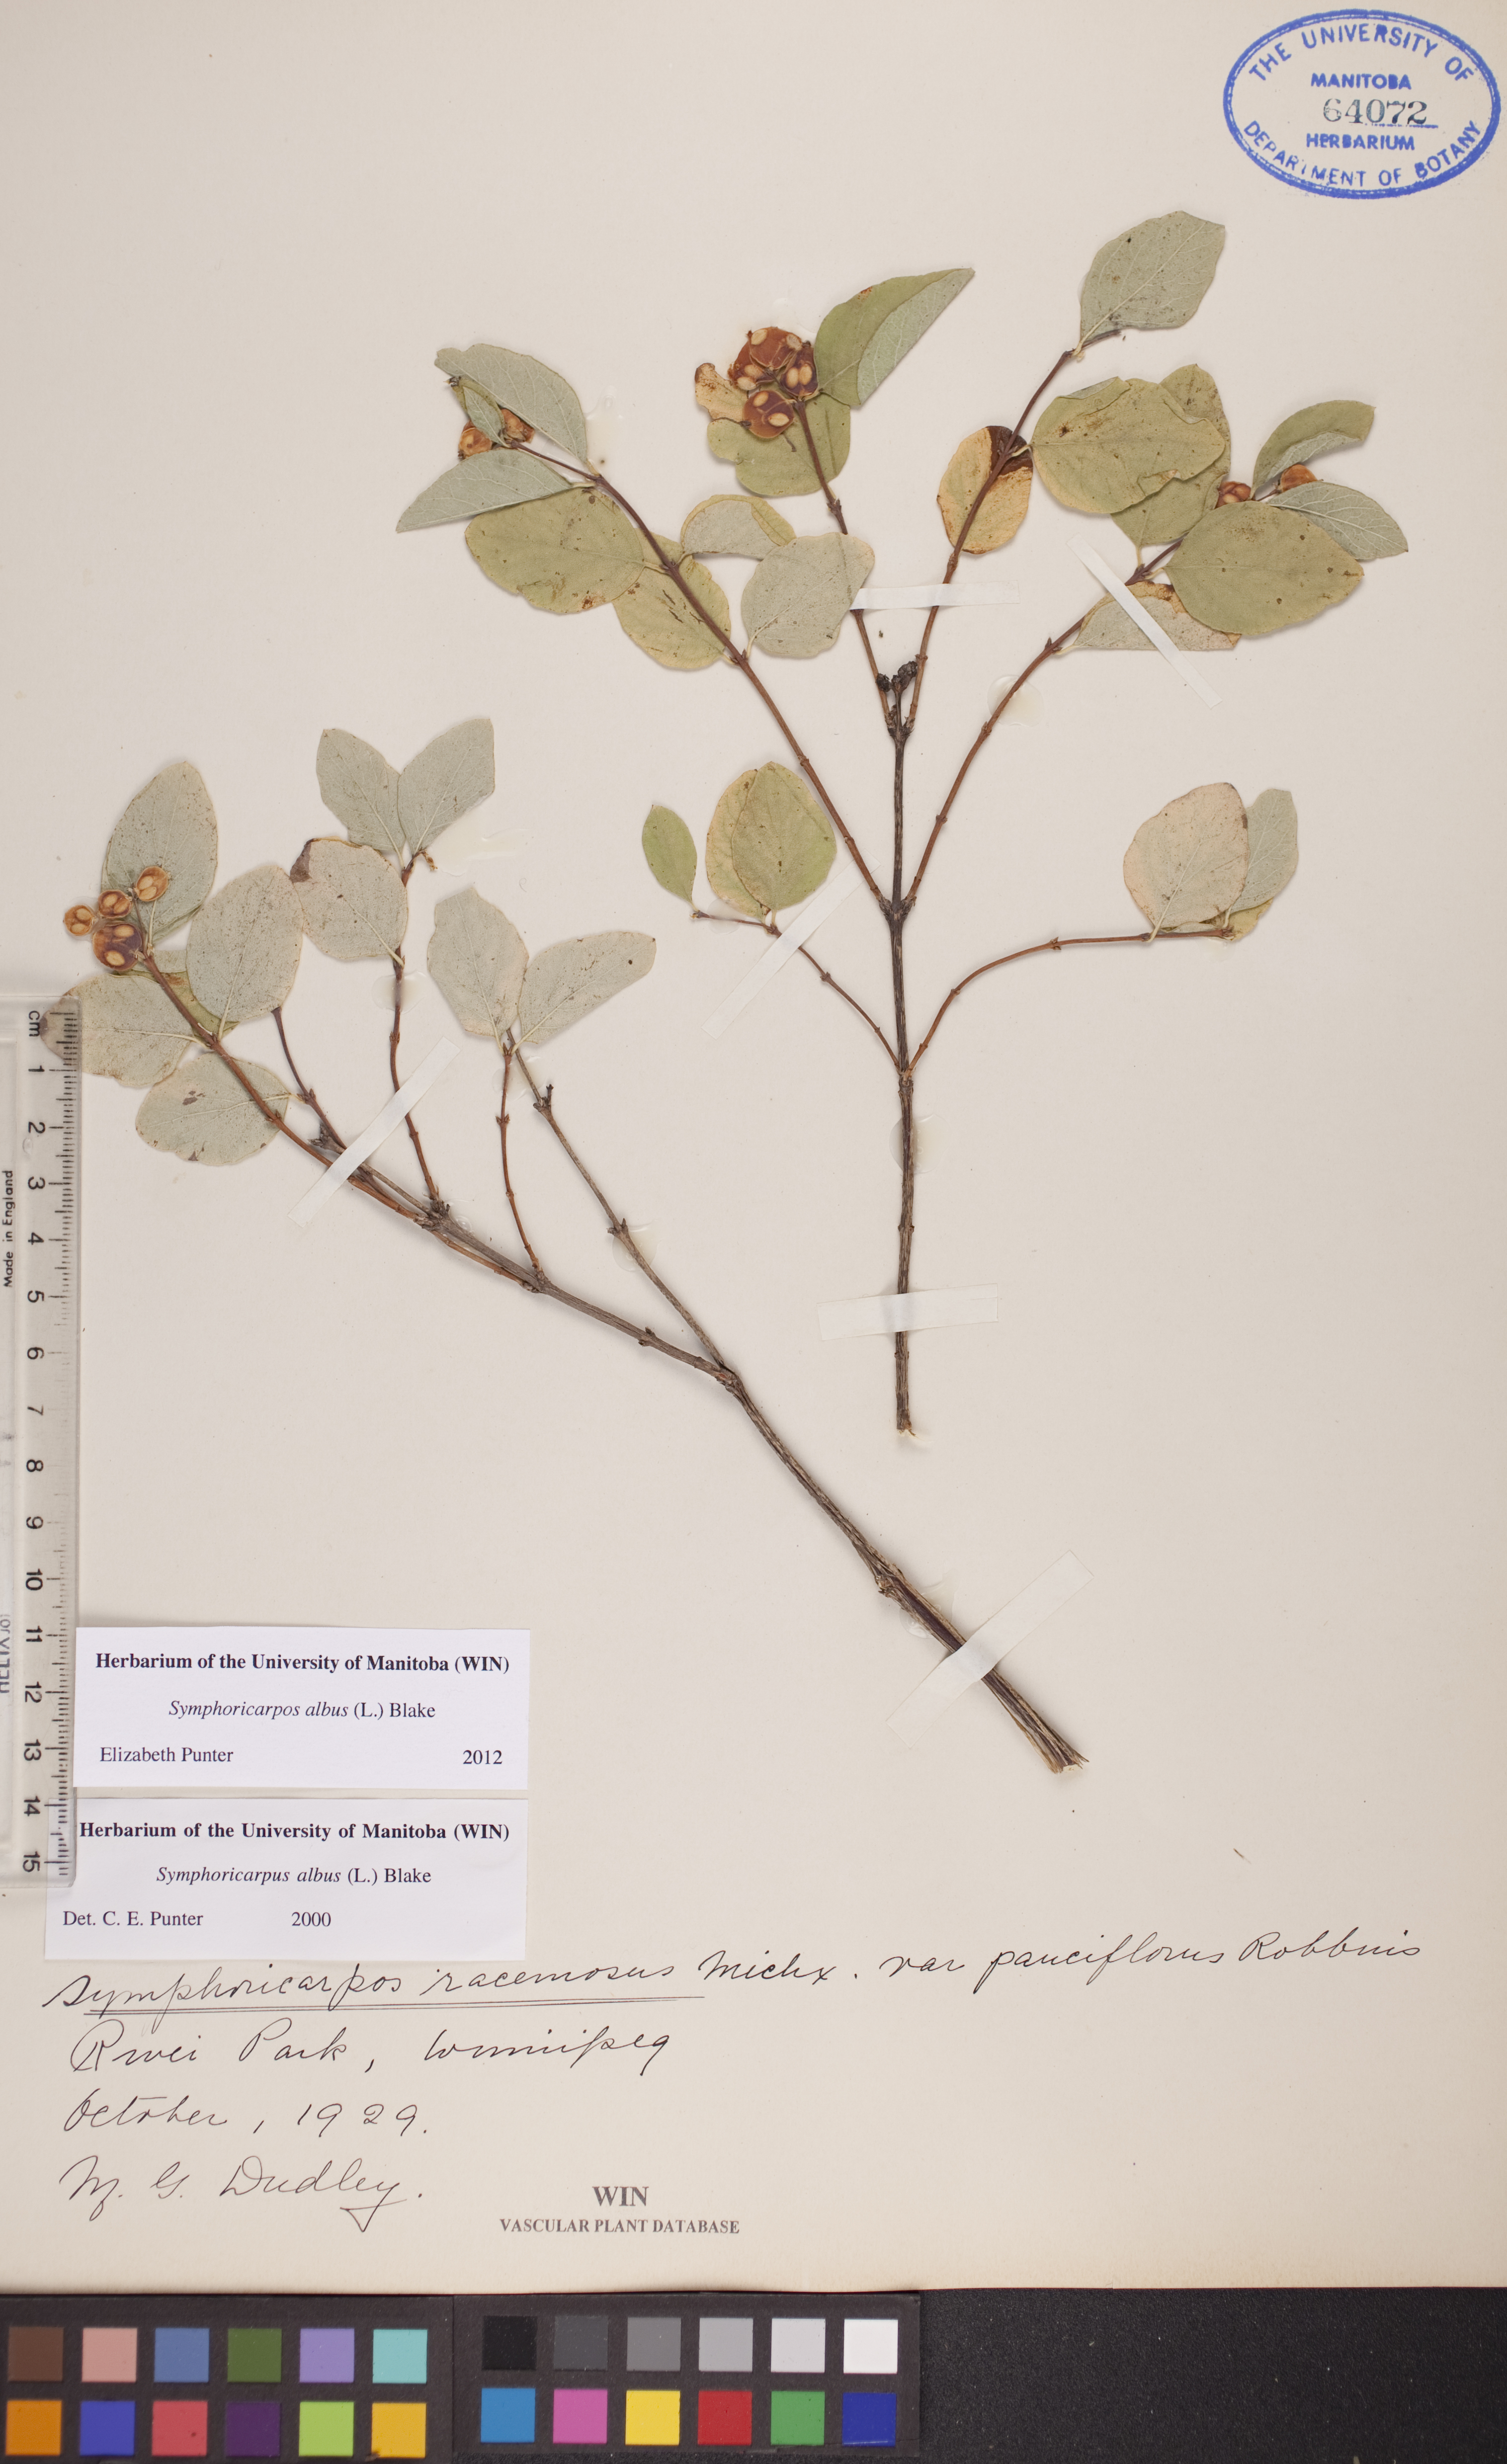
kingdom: Plantae
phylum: Tracheophyta
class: Magnoliopsida
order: Dipsacales
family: Caprifoliaceae
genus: Symphoricarpos
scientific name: Symphoricarpos albus
